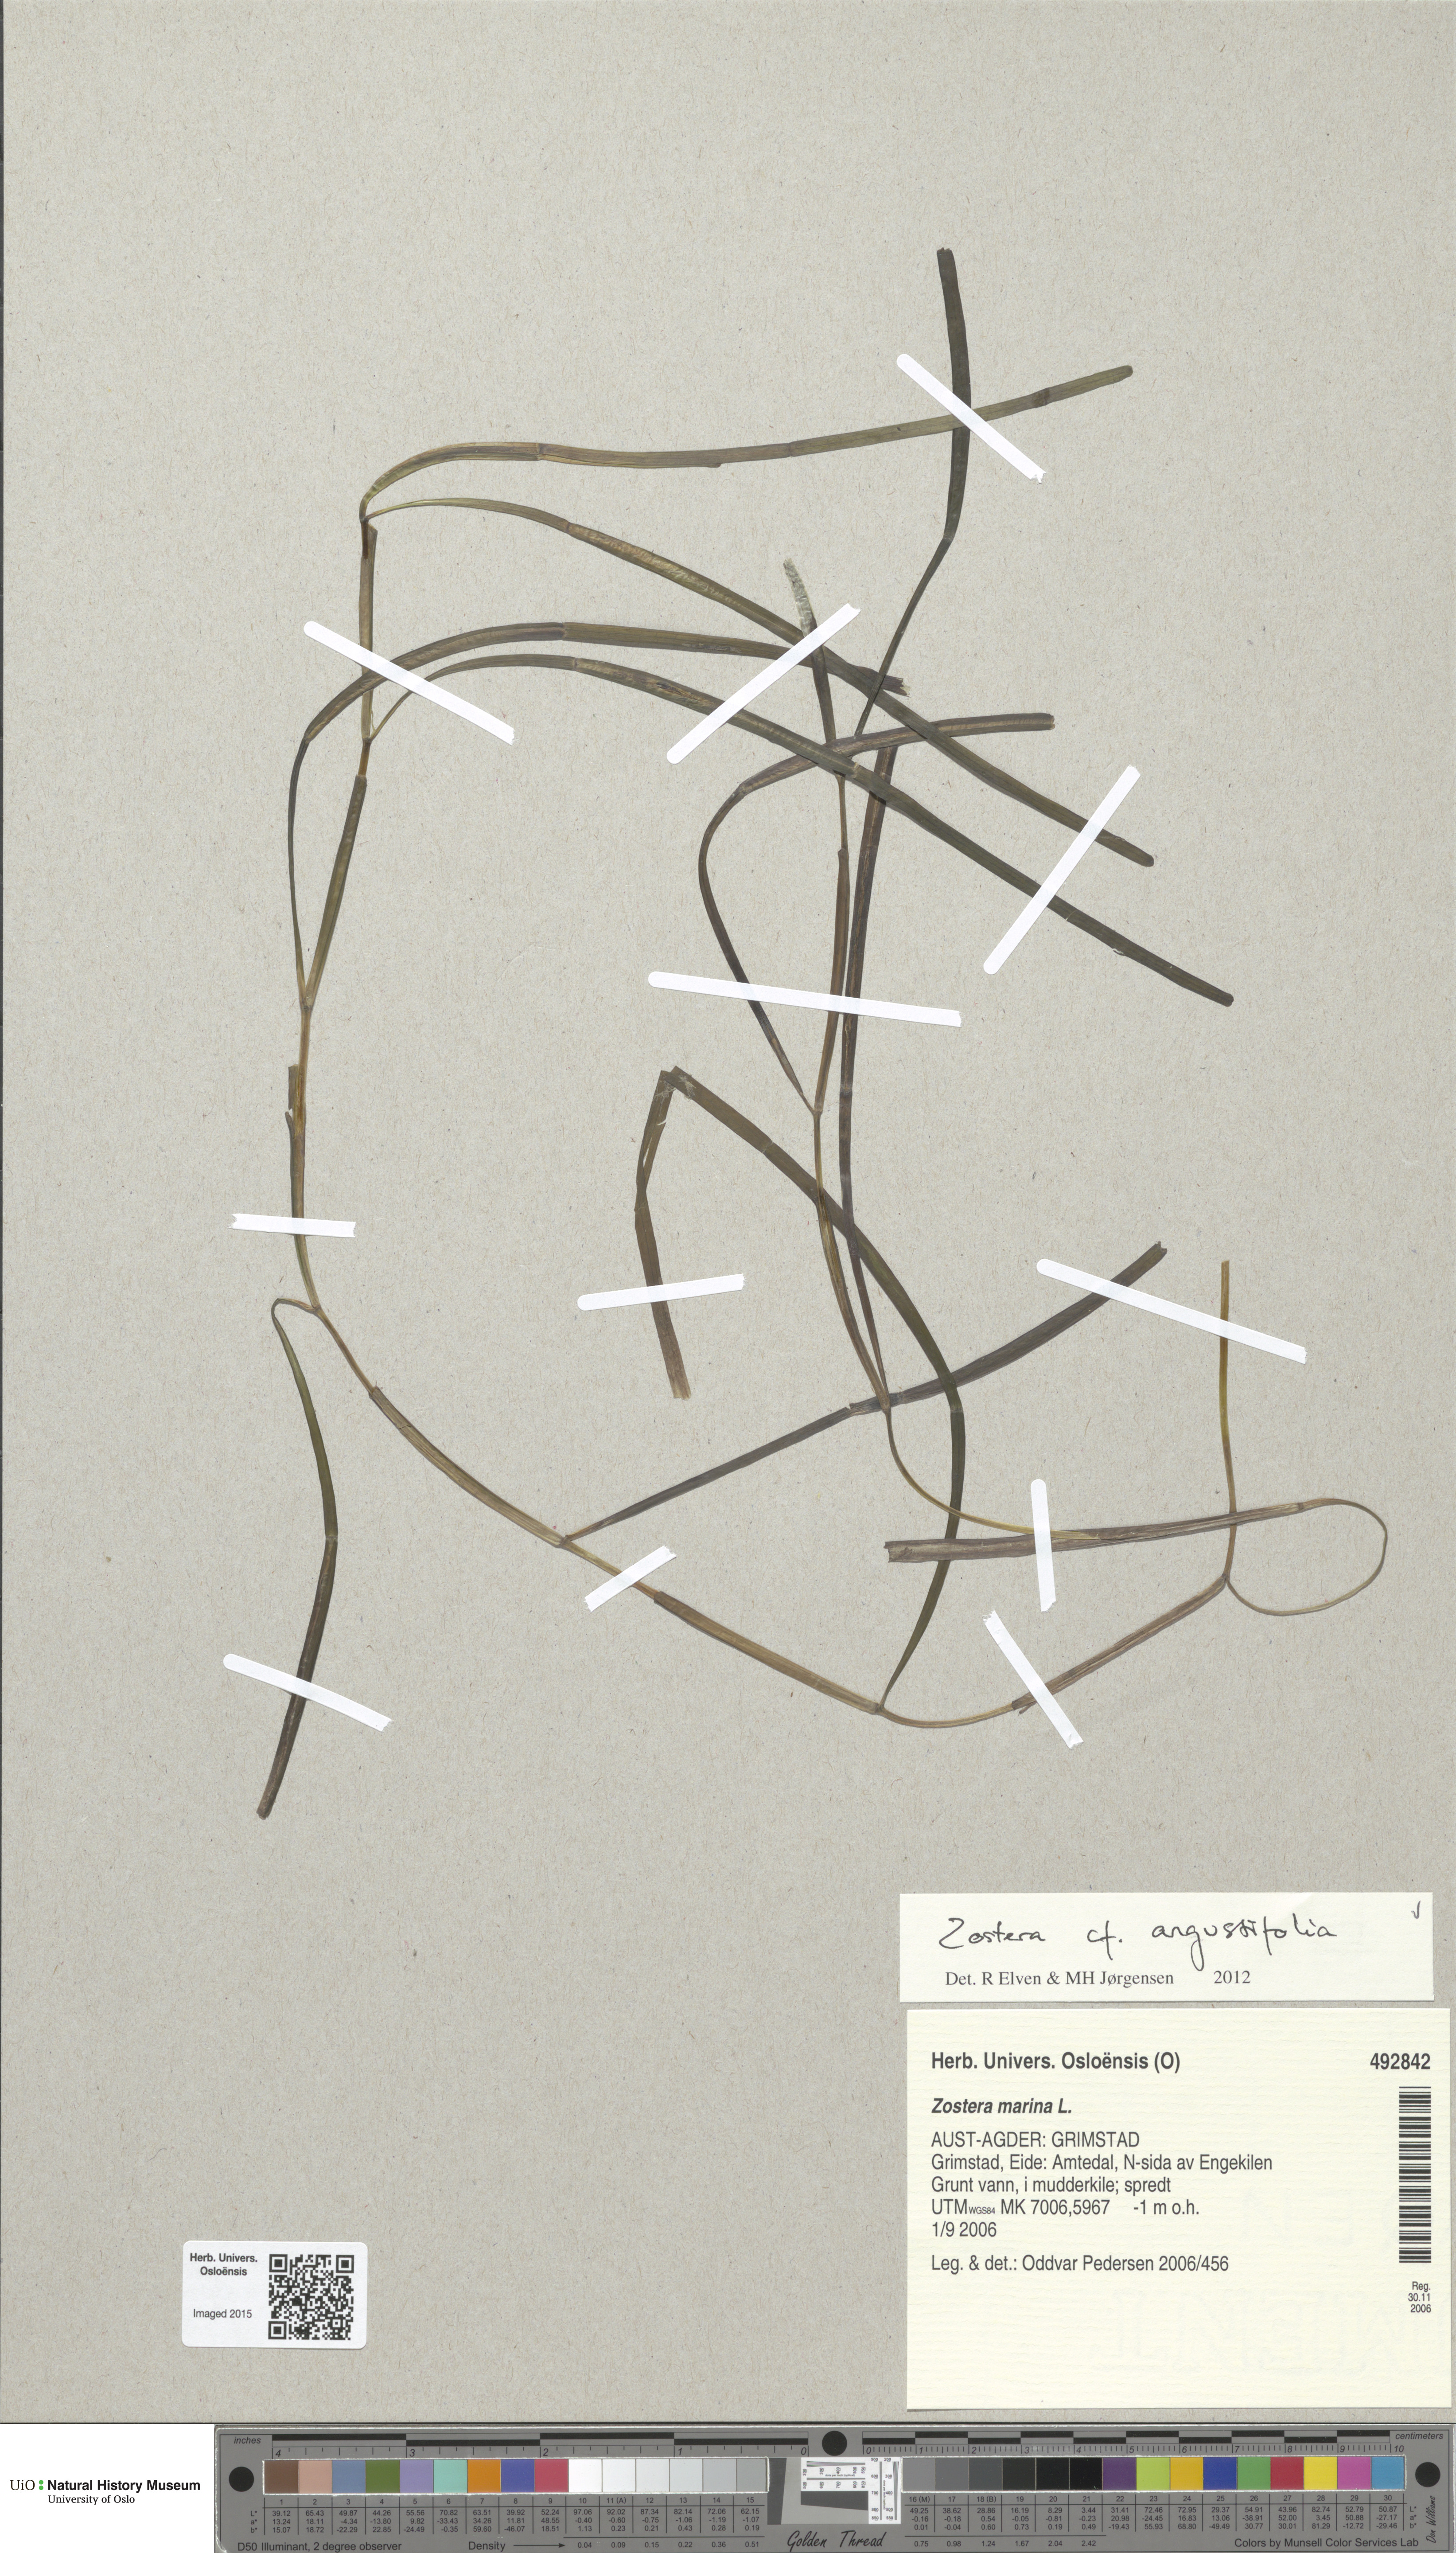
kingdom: Plantae
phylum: Tracheophyta
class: Liliopsida
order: Alismatales
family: Zosteraceae
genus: Zostera
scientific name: Zostera angustifolia
